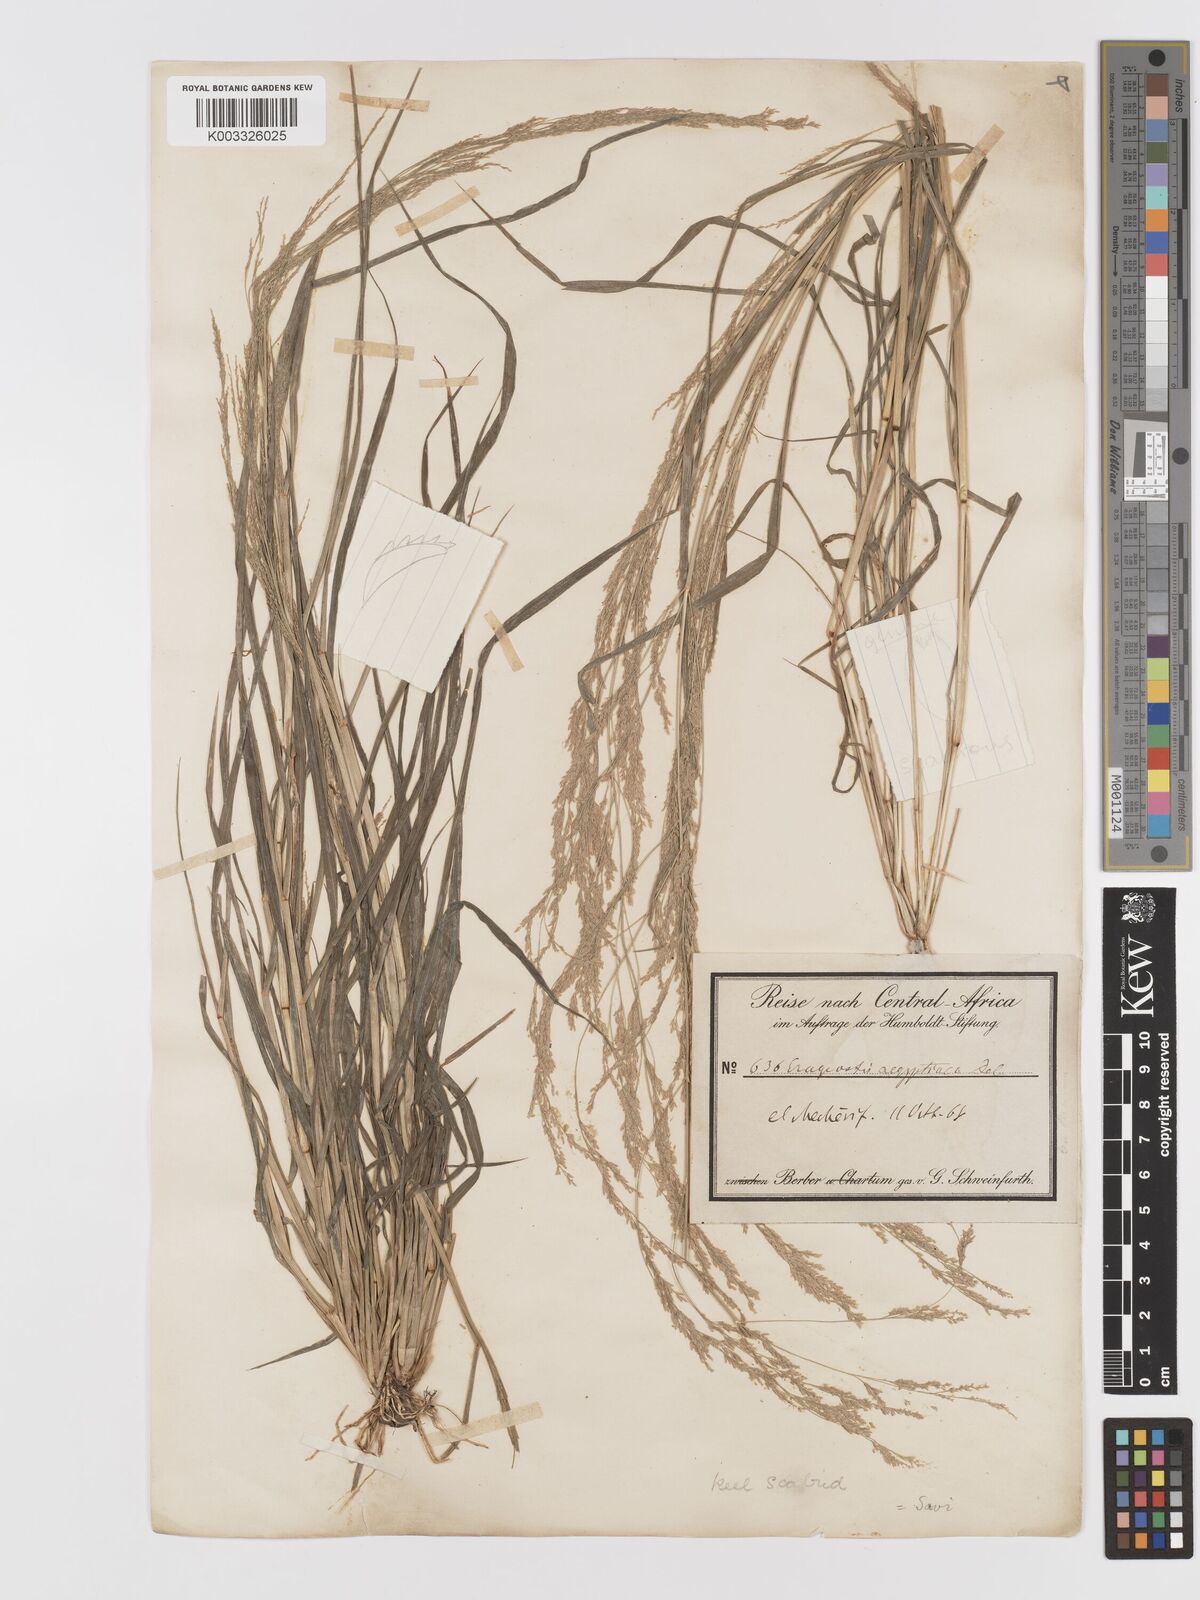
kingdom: Plantae
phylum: Tracheophyta
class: Liliopsida
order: Poales
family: Poaceae
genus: Eragrostis
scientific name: Eragrostis japonica
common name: Pond lovegrass
